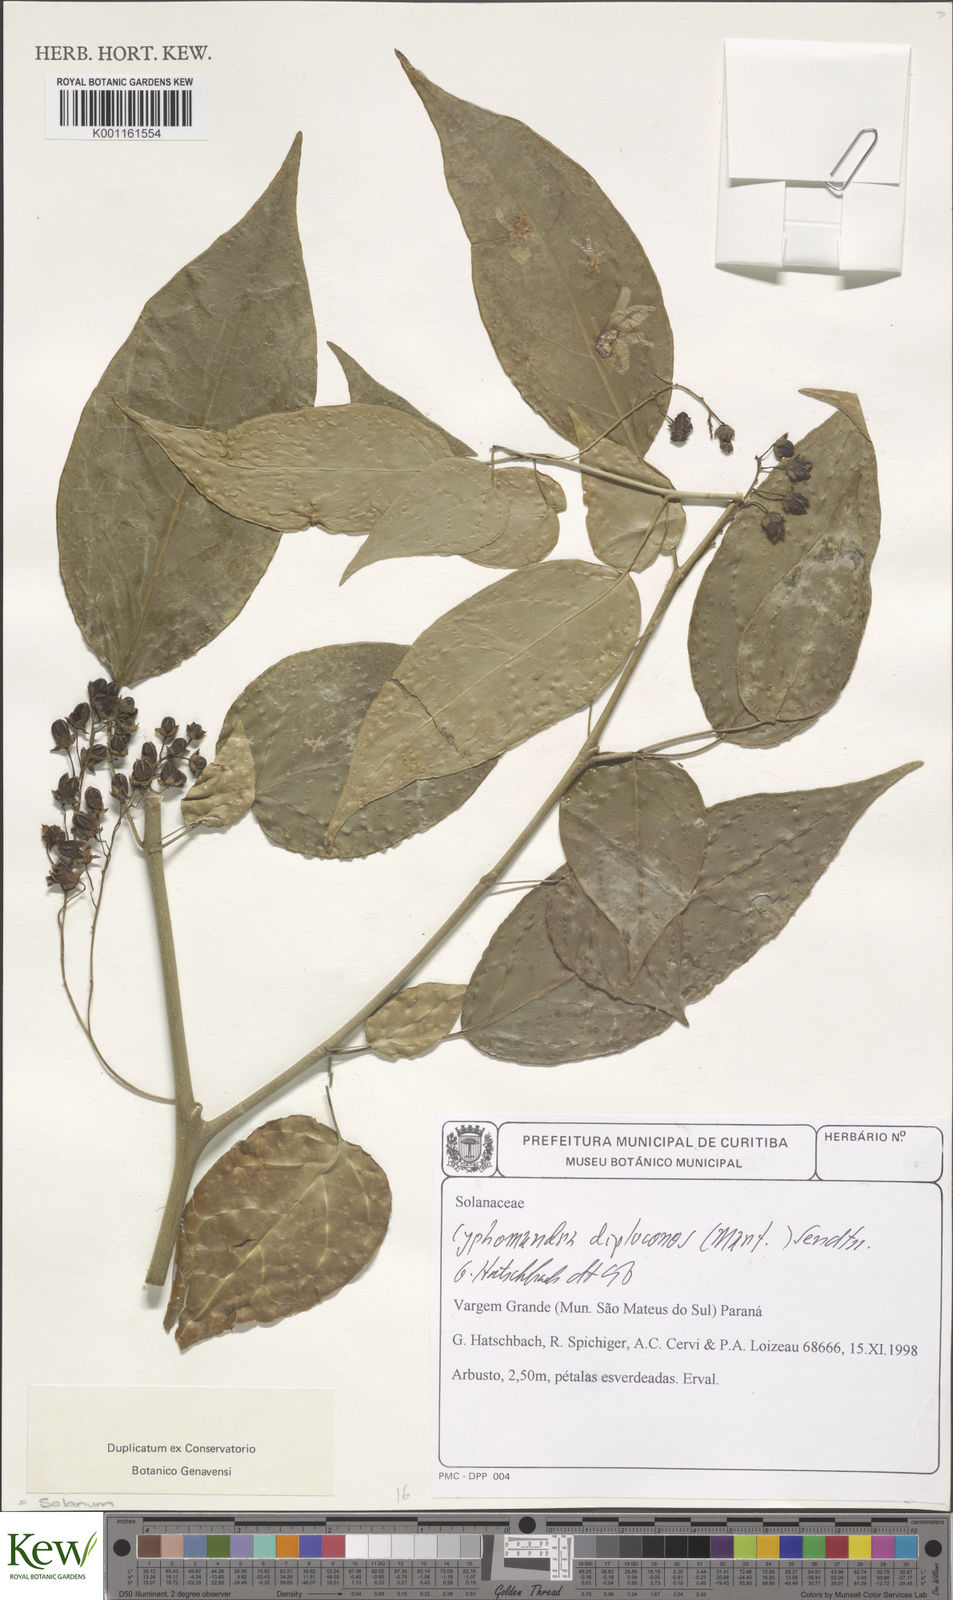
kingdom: Plantae
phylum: Tracheophyta
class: Magnoliopsida
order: Solanales
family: Solanaceae
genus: Solanum
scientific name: Solanum diploconos
